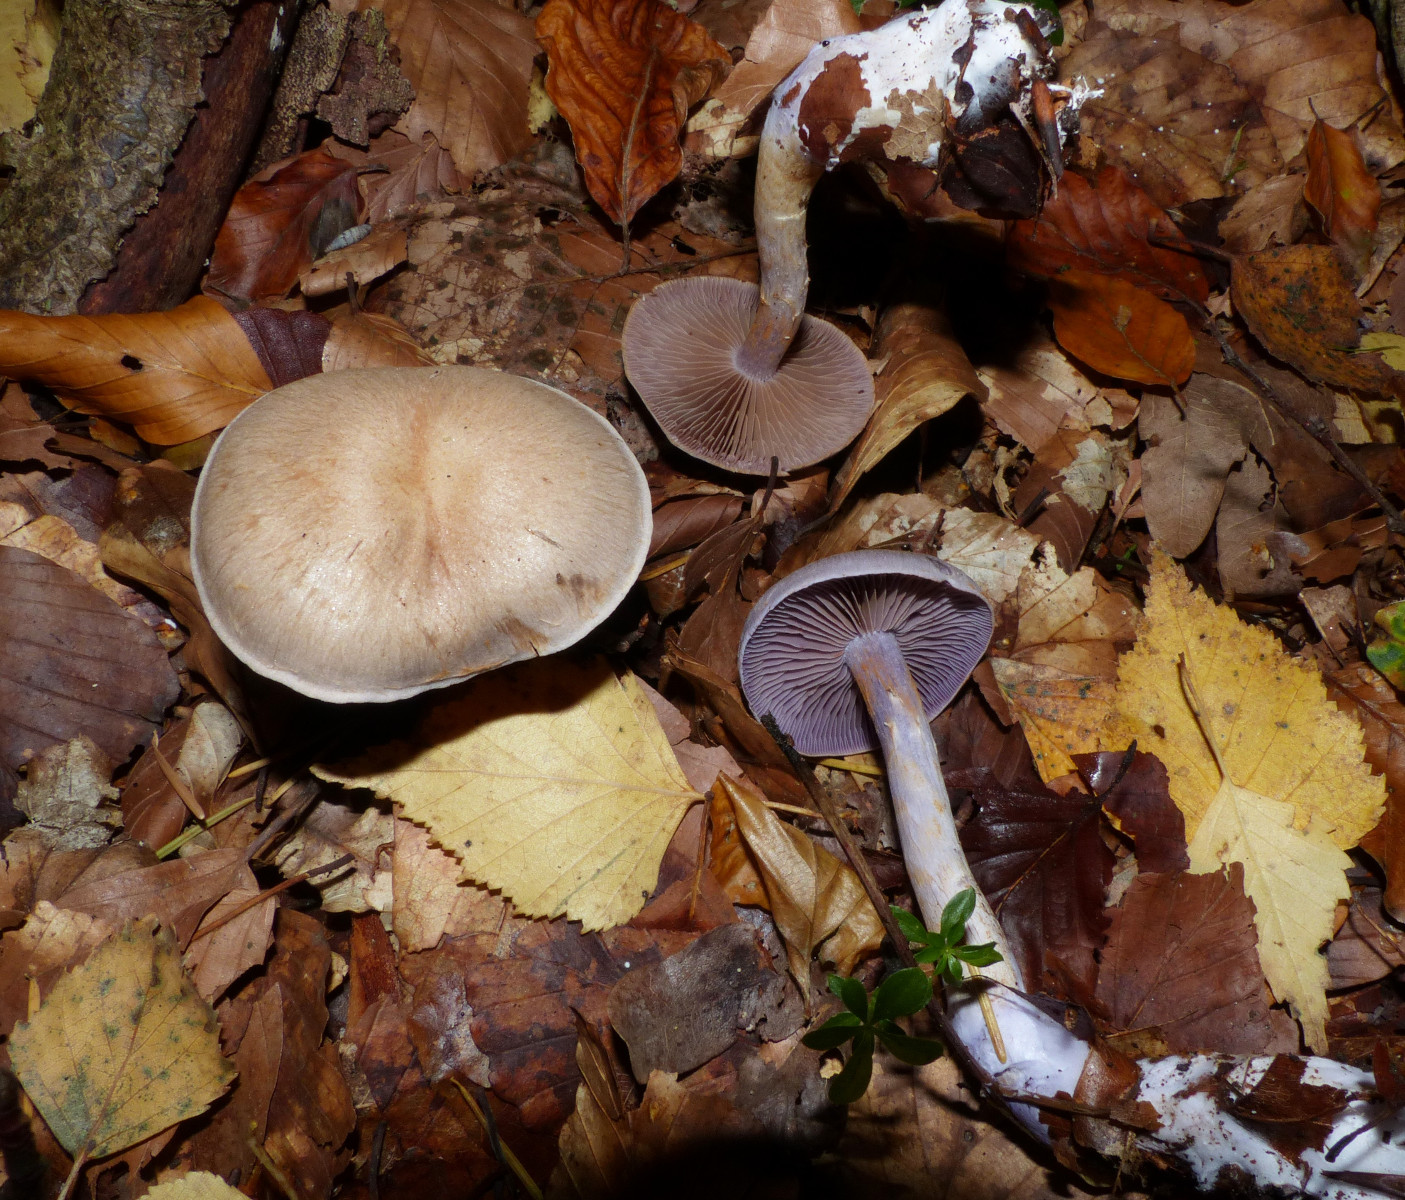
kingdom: Fungi
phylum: Basidiomycota
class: Agaricomycetes
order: Agaricales
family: Cortinariaceae
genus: Cortinarius
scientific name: Cortinarius
